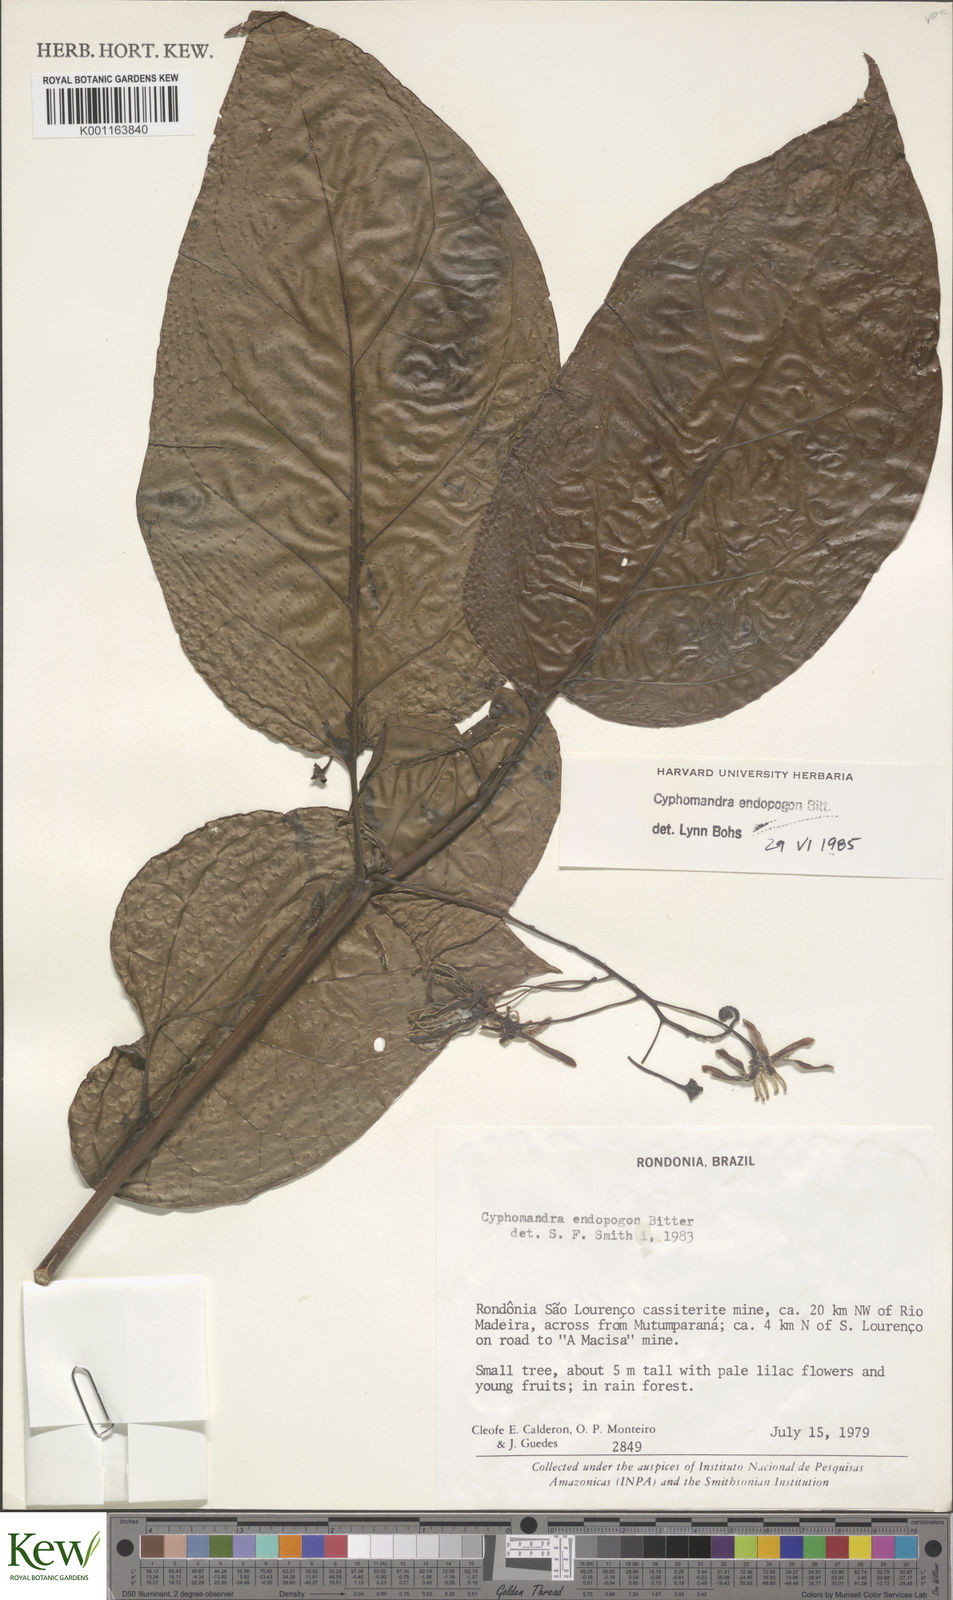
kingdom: Plantae
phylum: Tracheophyta
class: Magnoliopsida
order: Solanales
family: Solanaceae
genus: Solanum
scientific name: Solanum endopogon
